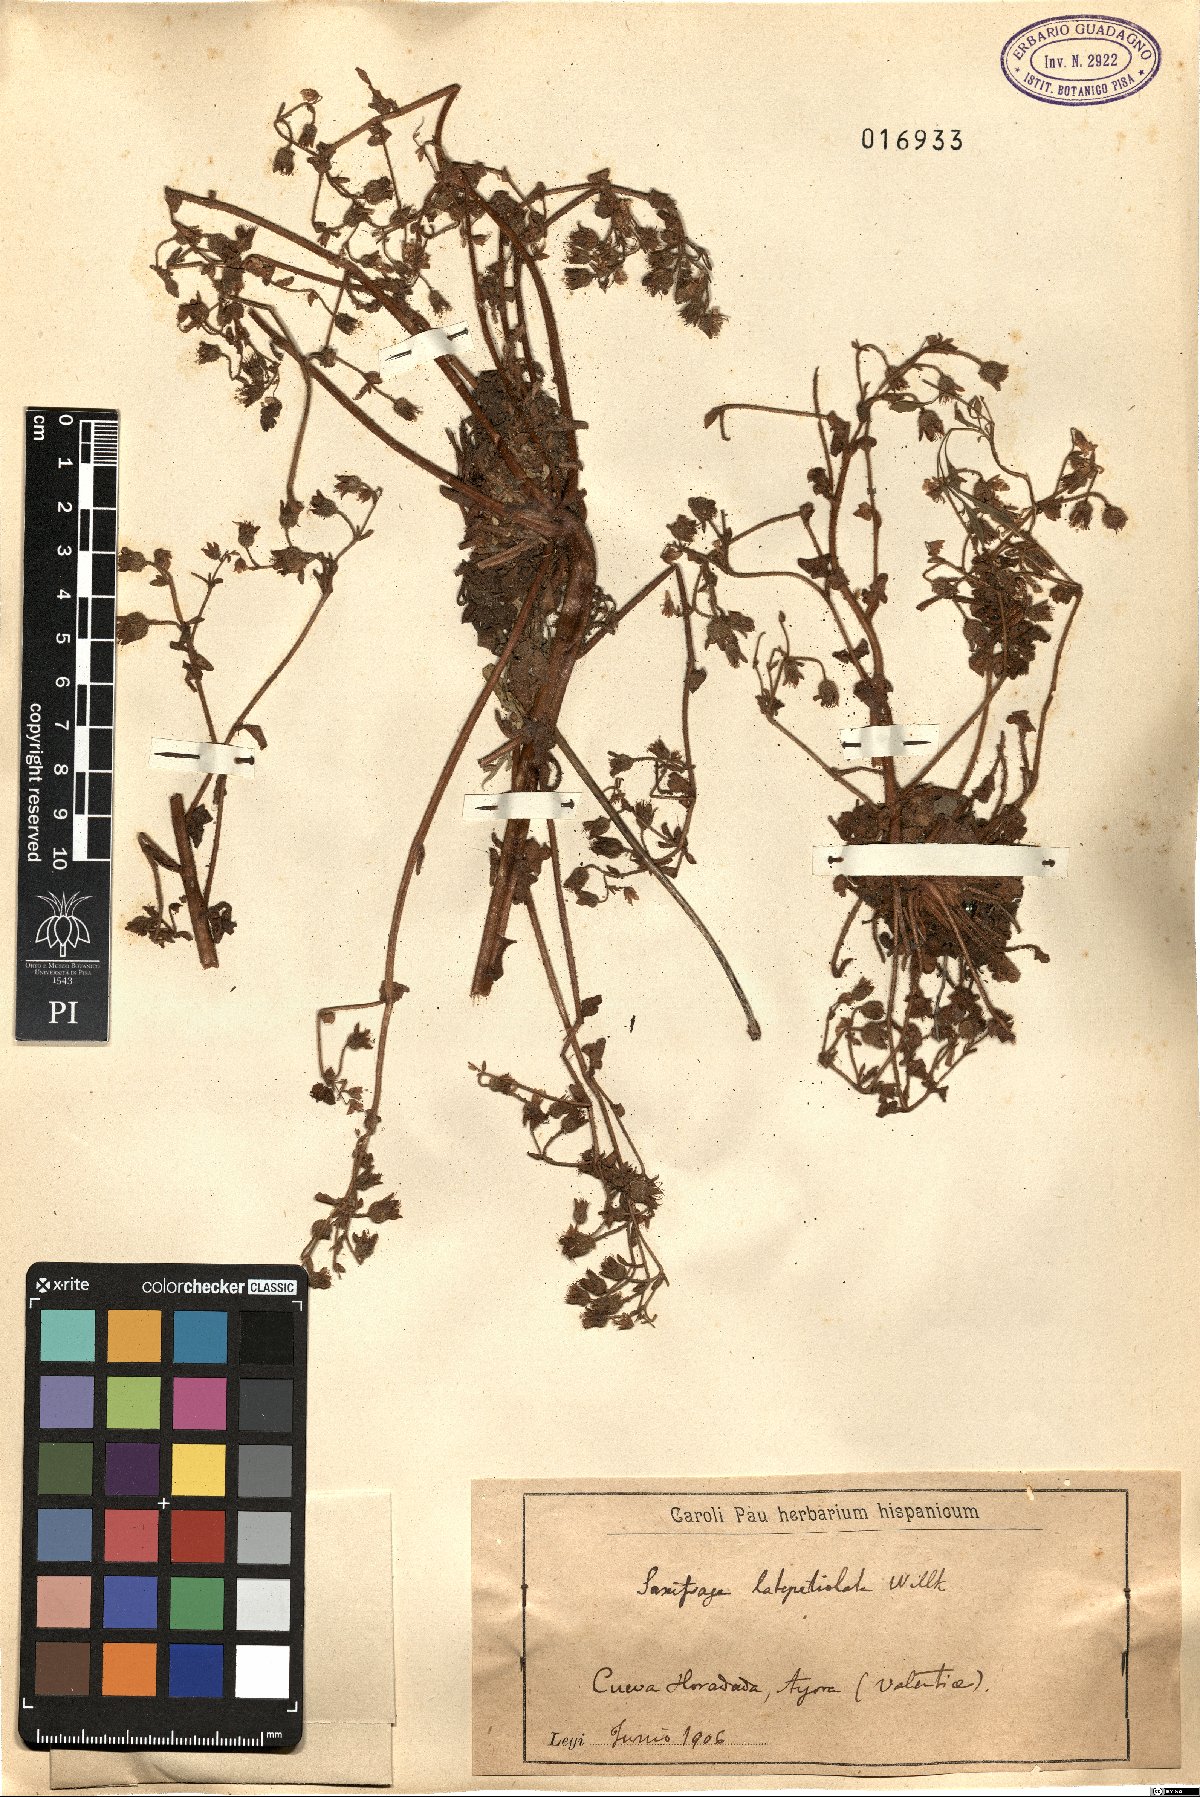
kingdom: Plantae
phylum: Tracheophyta
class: Magnoliopsida
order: Saxifragales
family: Saxifragaceae
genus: Saxifraga
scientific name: Saxifraga latepetiolata
